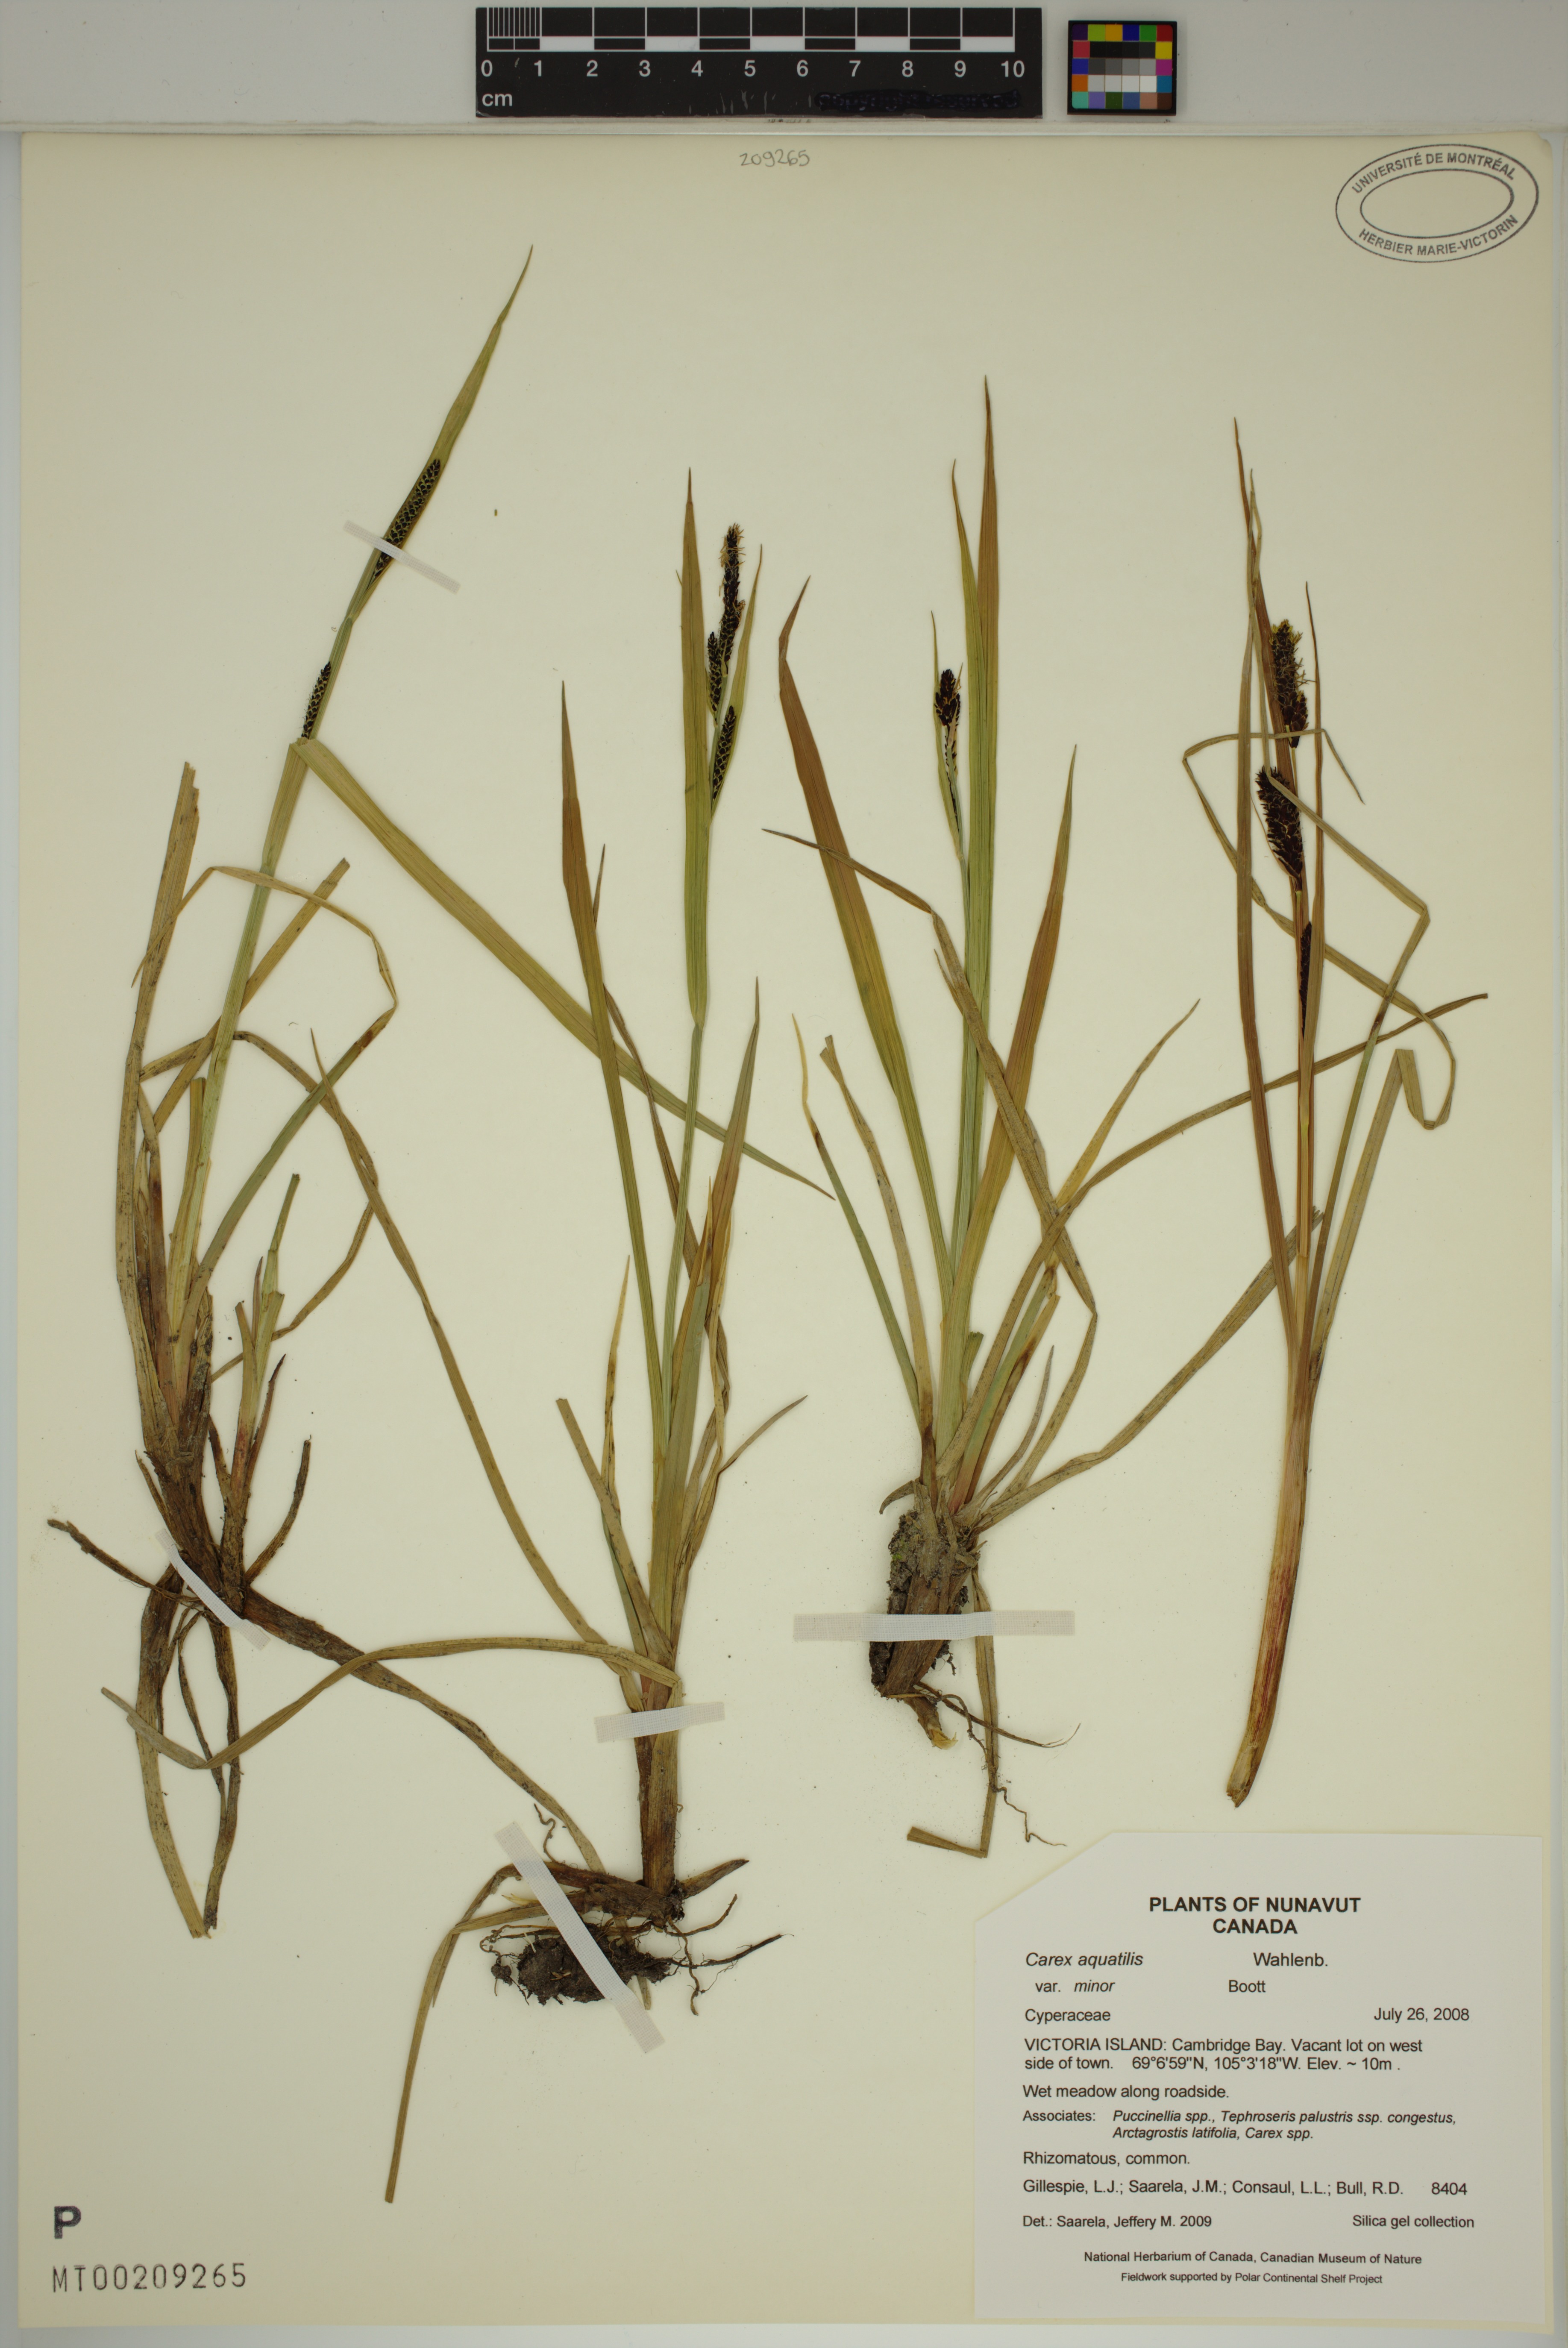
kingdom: Plantae
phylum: Tracheophyta
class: Liliopsida
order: Poales
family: Cyperaceae
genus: Carex
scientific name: Carex aquatilis
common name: Water sedge
